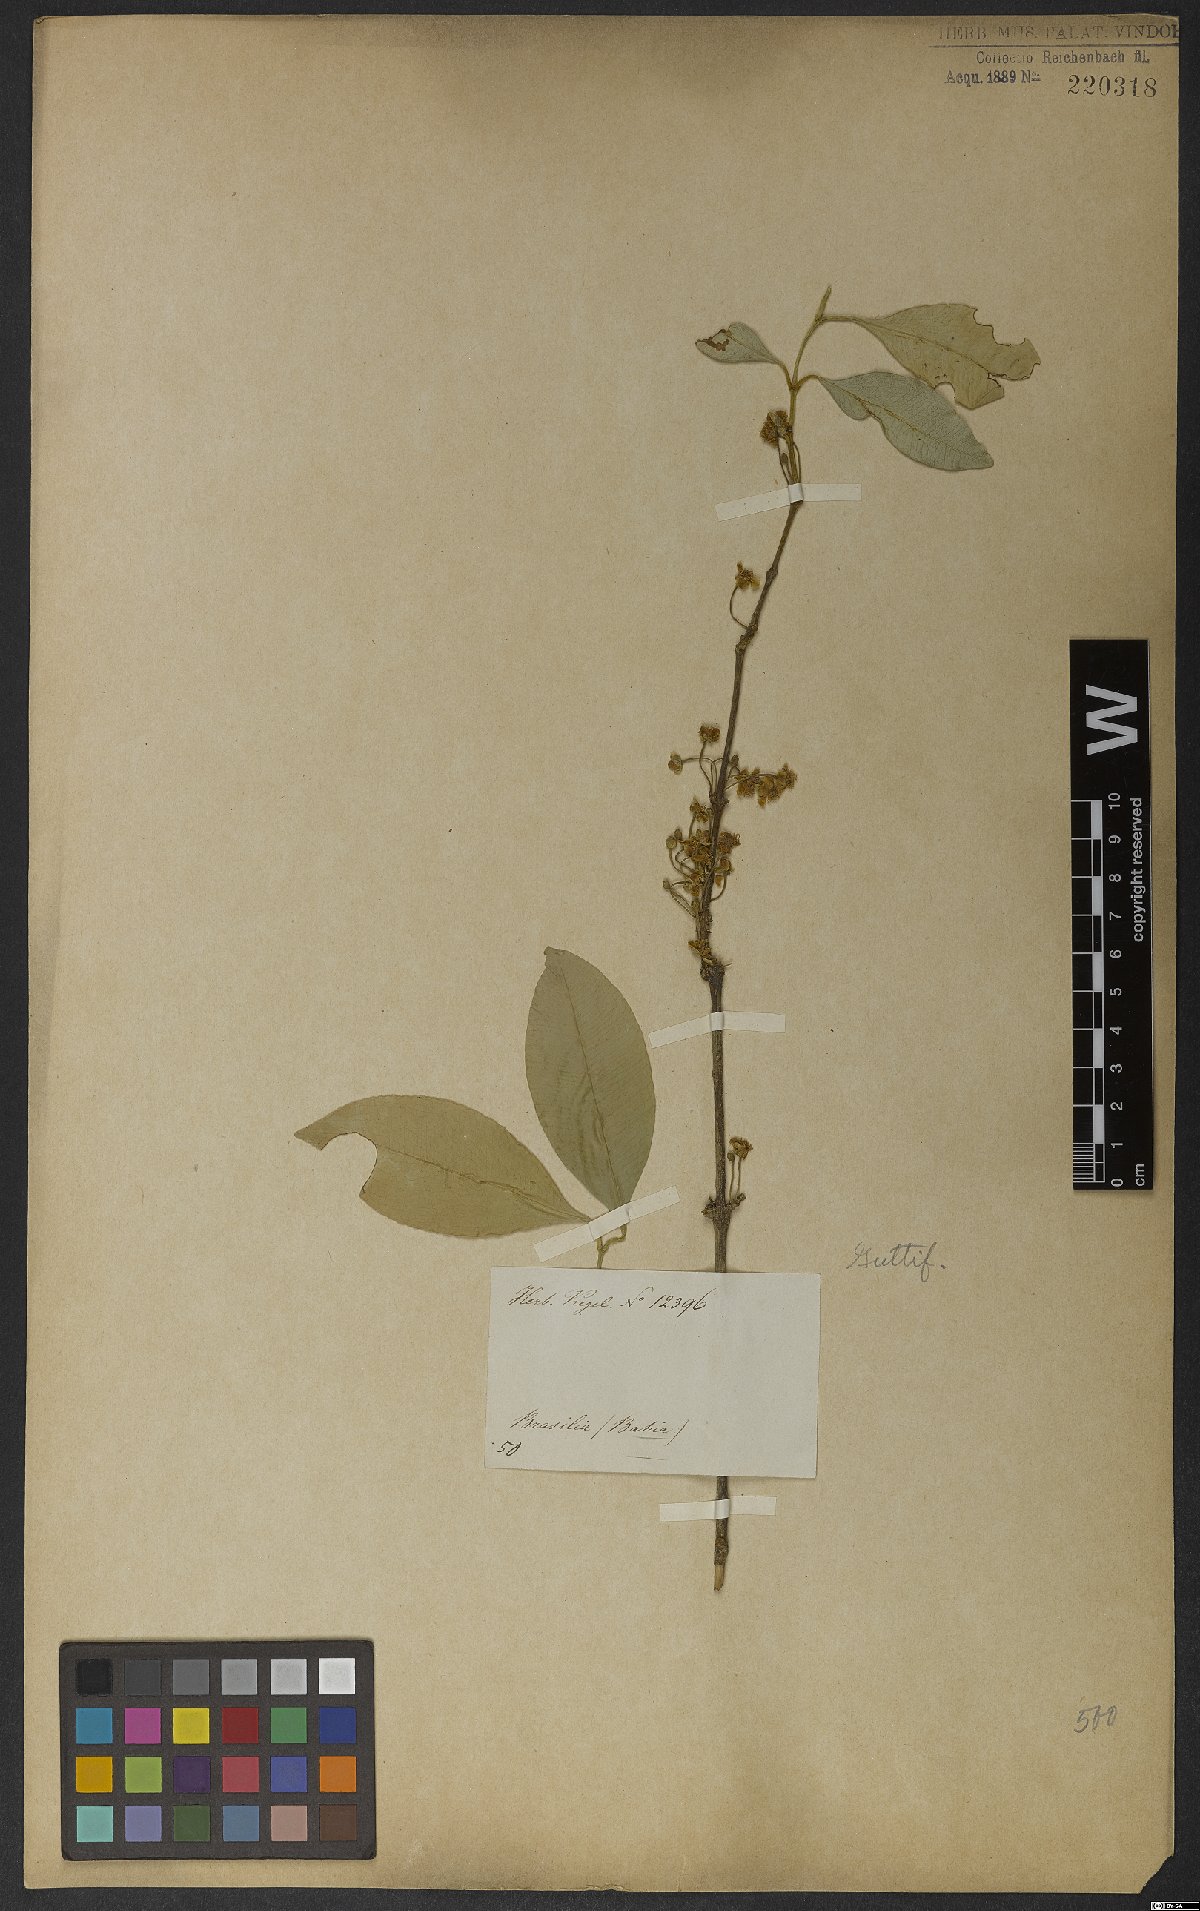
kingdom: Plantae
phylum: Tracheophyta
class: Magnoliopsida
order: Malpighiales
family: Clusiaceae
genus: Garcinia
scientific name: Garcinia gardneriana
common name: Achacha
